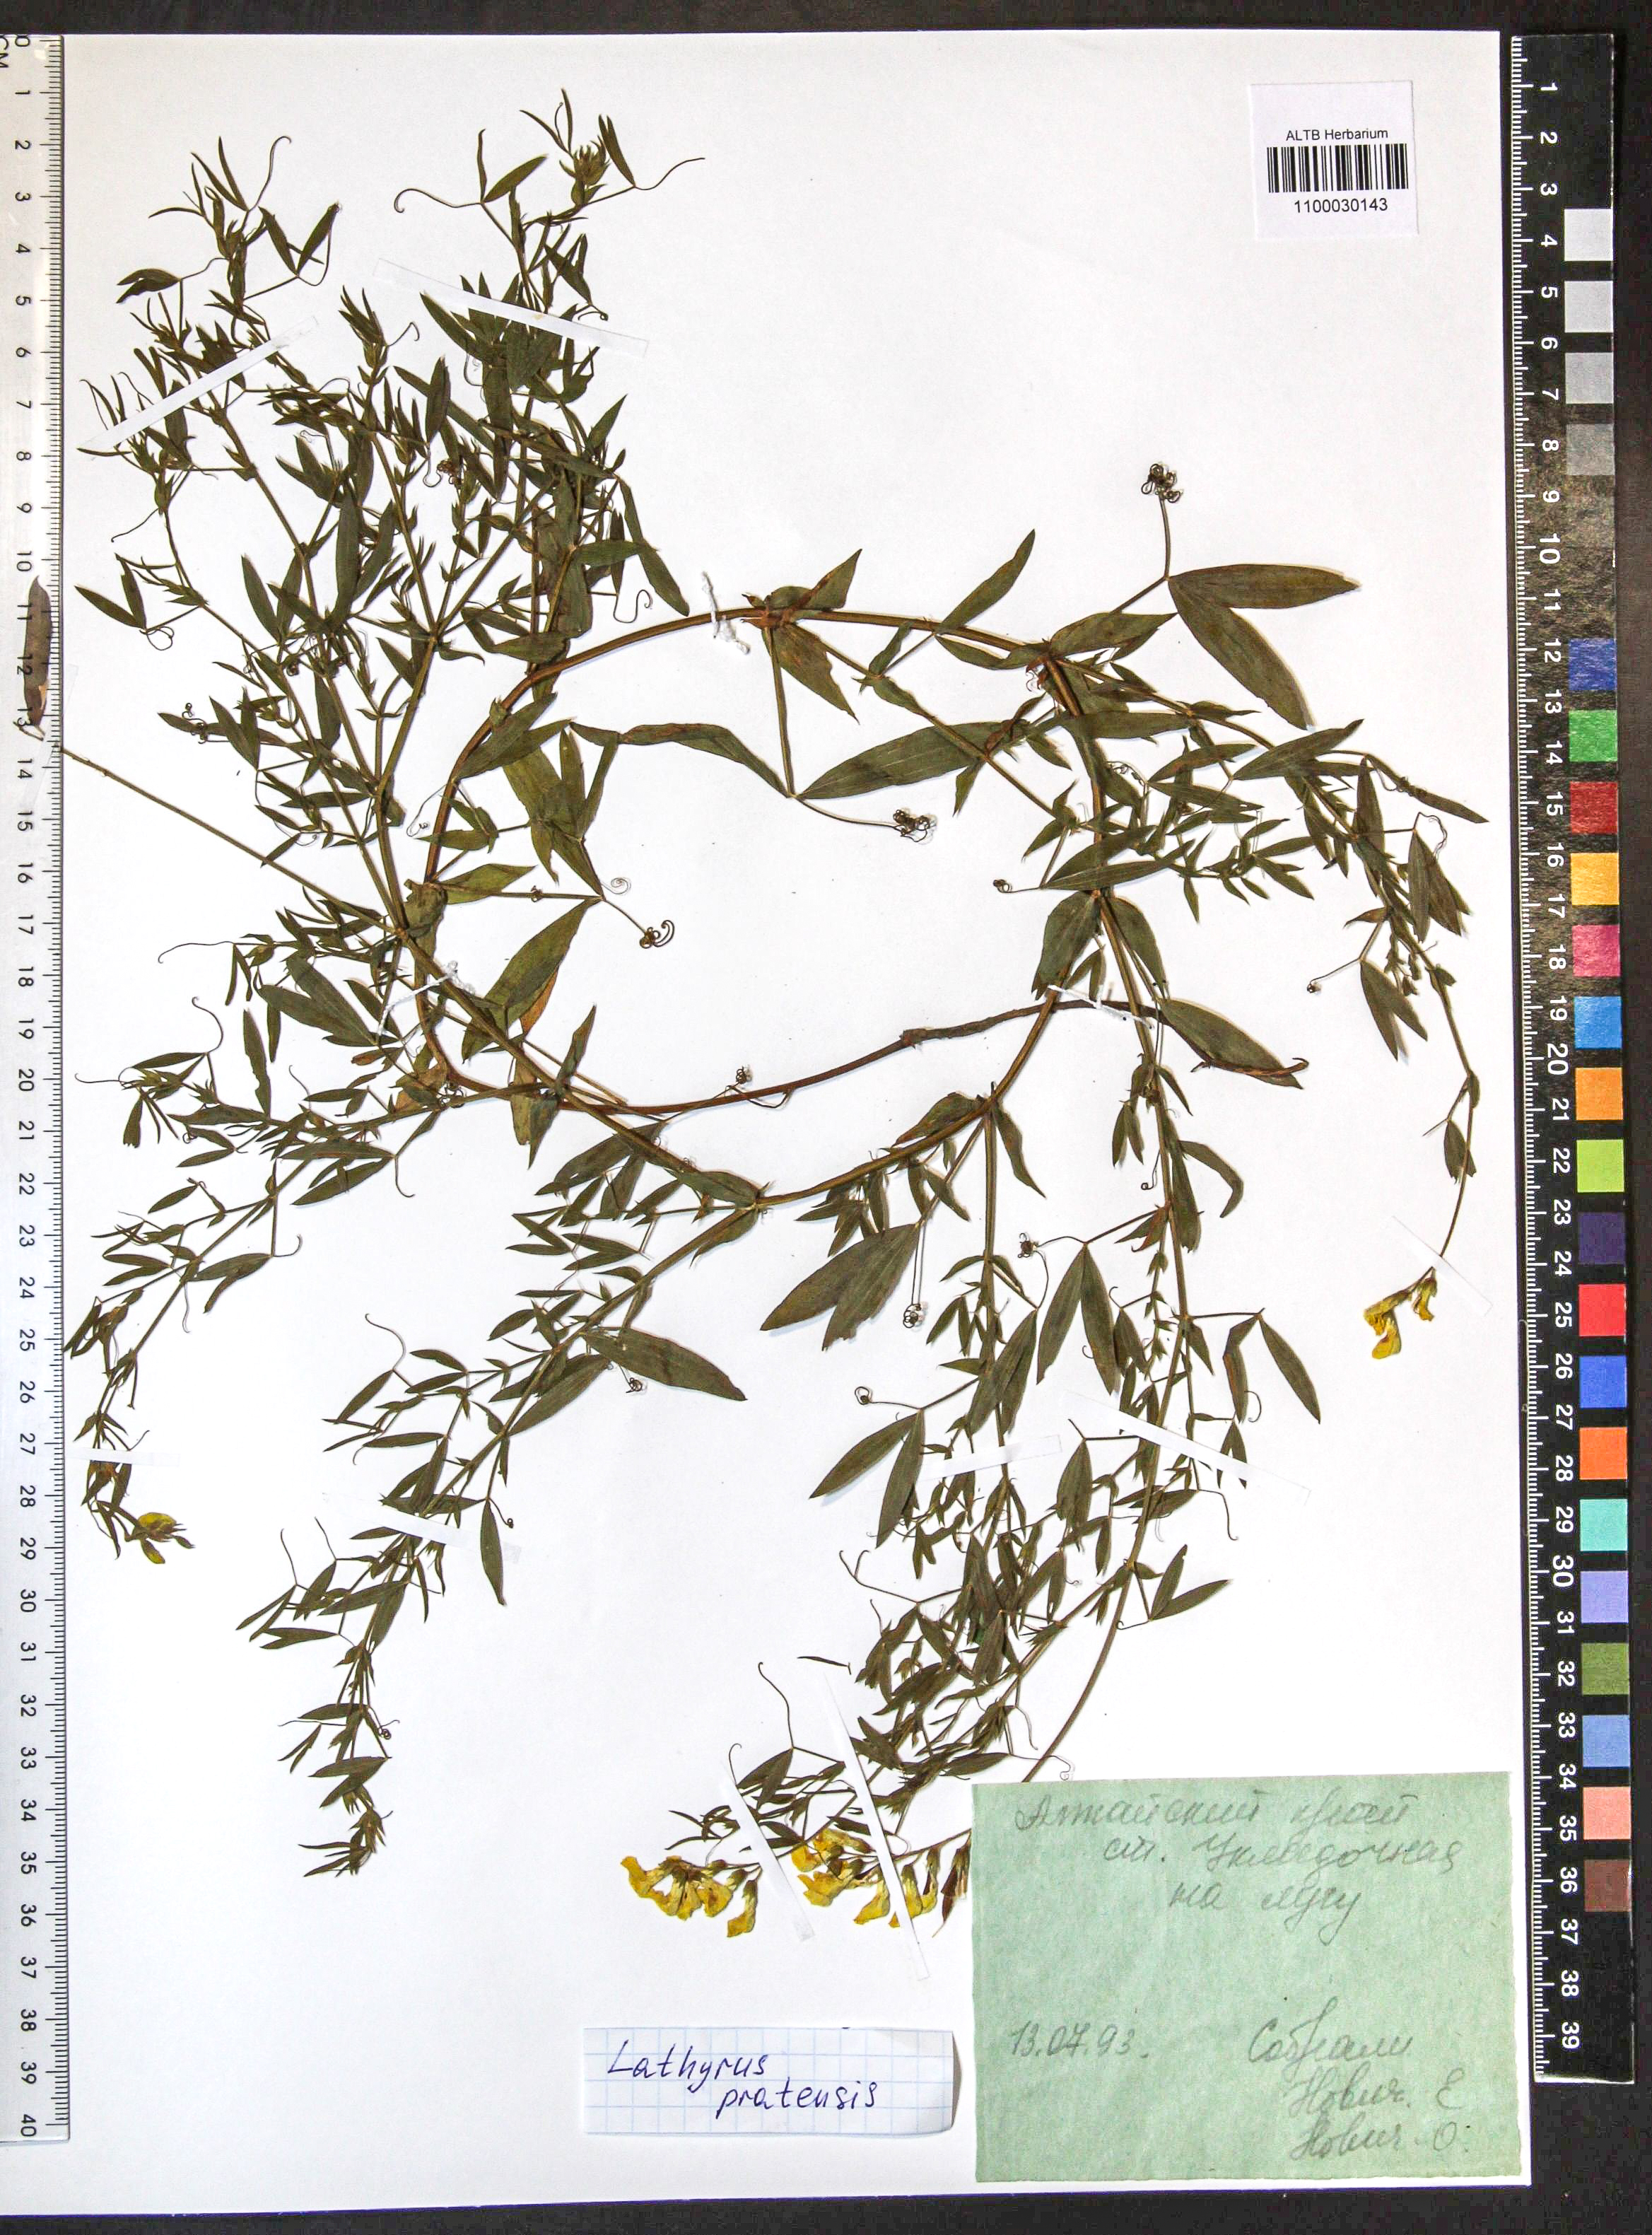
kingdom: Plantae
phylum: Tracheophyta
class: Magnoliopsida
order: Fabales
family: Fabaceae
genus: Lathyrus
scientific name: Lathyrus pratensis
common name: Meadow vetchling
